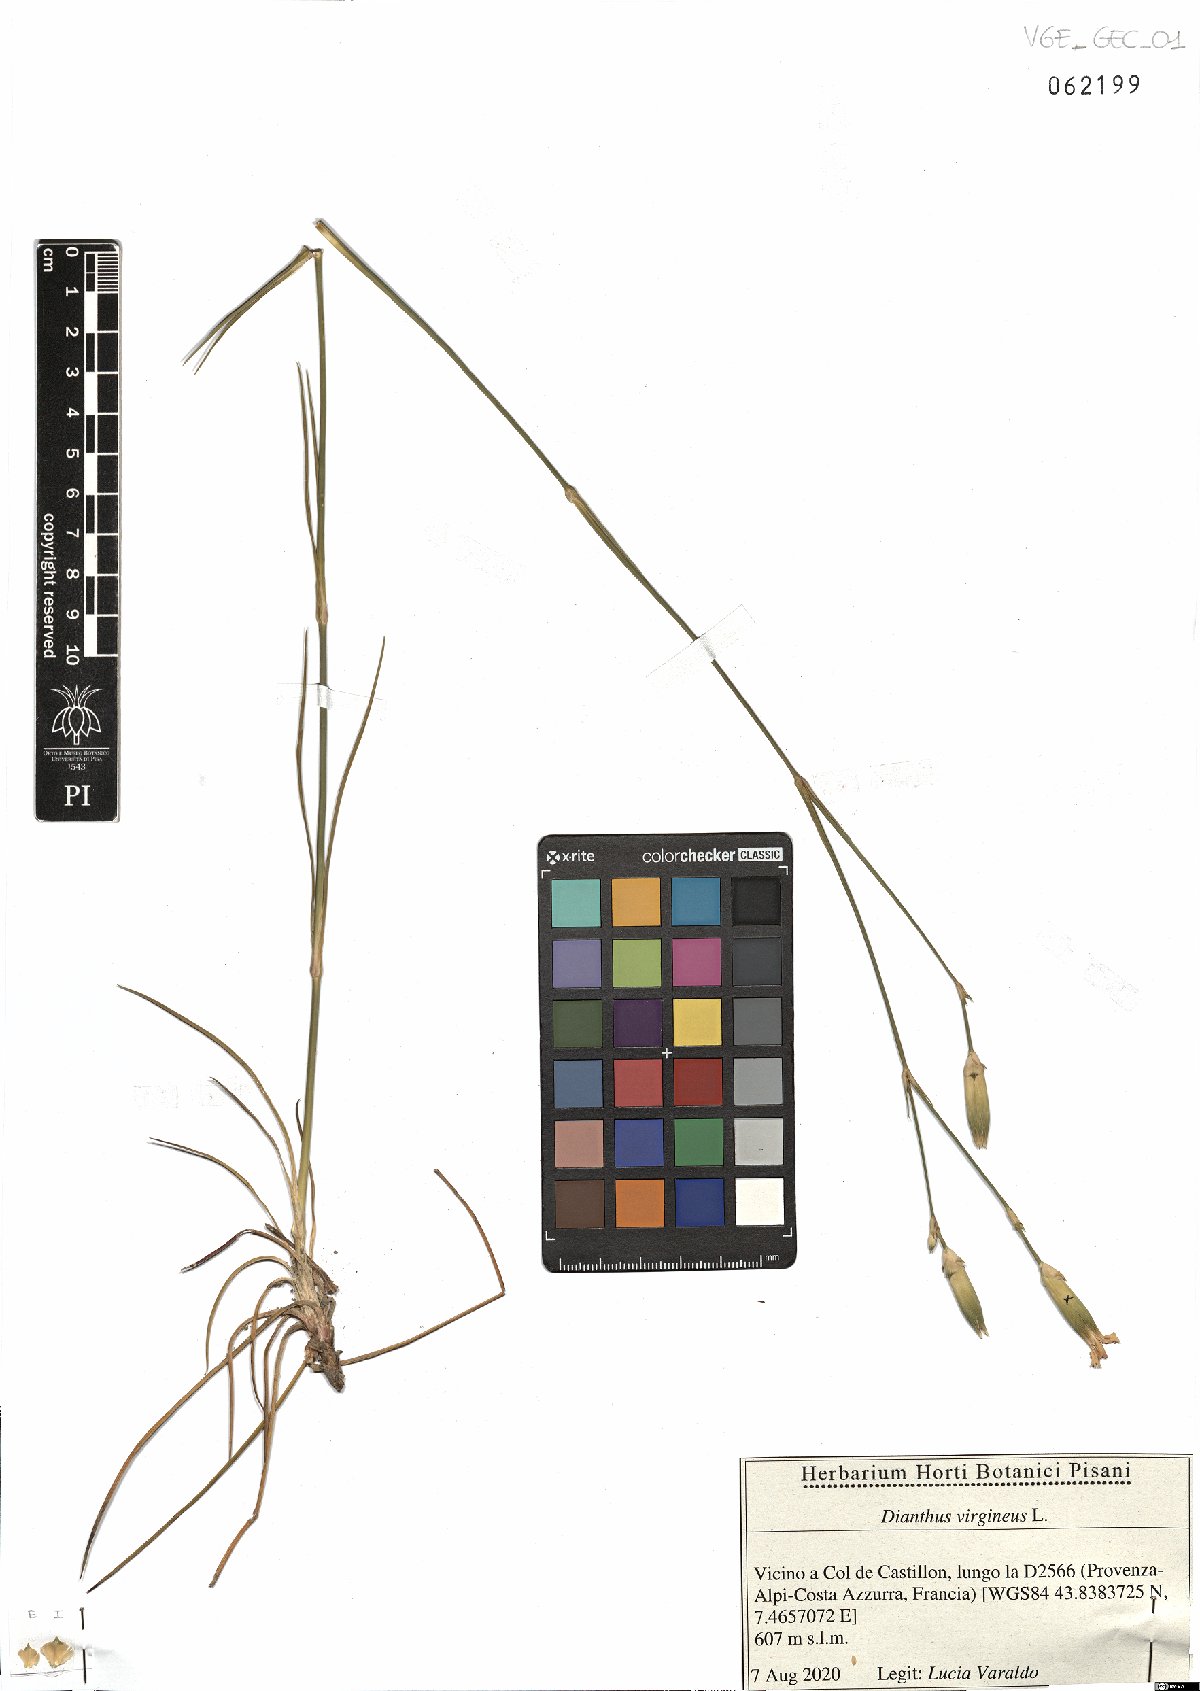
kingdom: Plantae
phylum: Tracheophyta
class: Magnoliopsida
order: Caryophyllales
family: Caryophyllaceae
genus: Dianthus
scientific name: Dianthus virgineus
